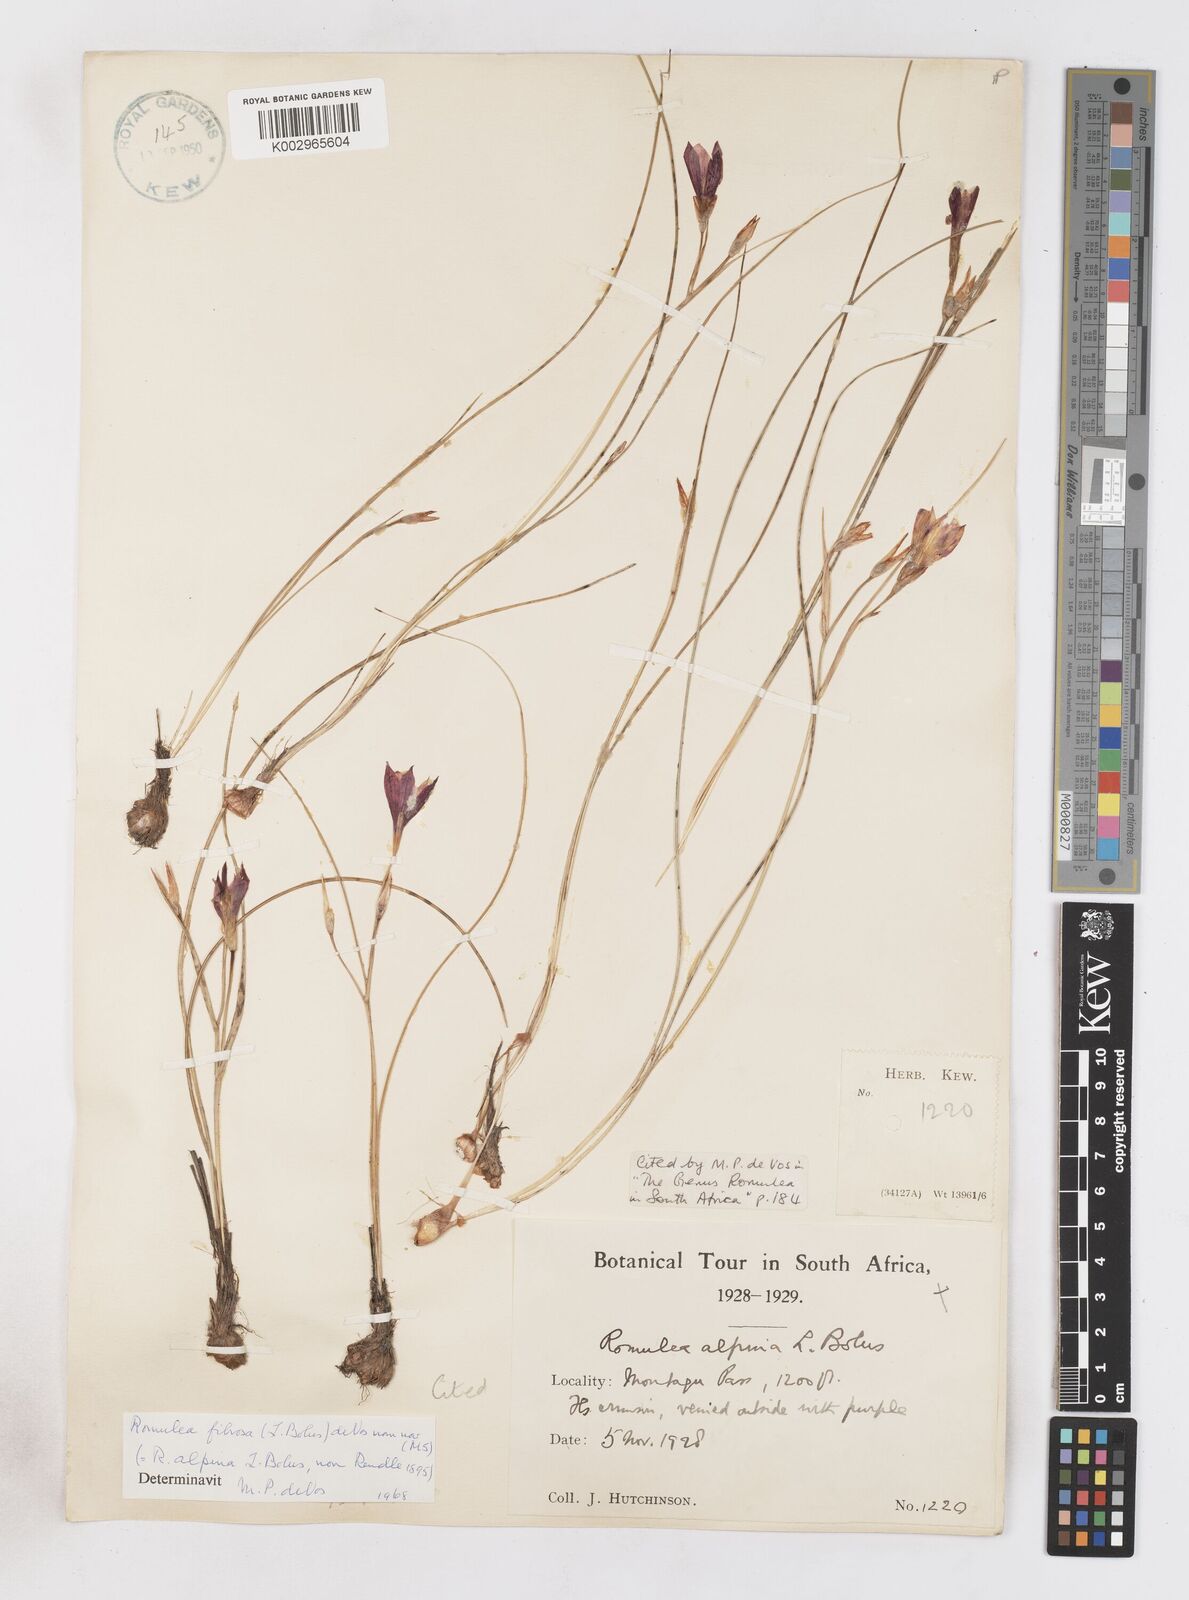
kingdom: Plantae
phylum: Tracheophyta
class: Liliopsida
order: Asparagales
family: Iridaceae
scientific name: Iridaceae
